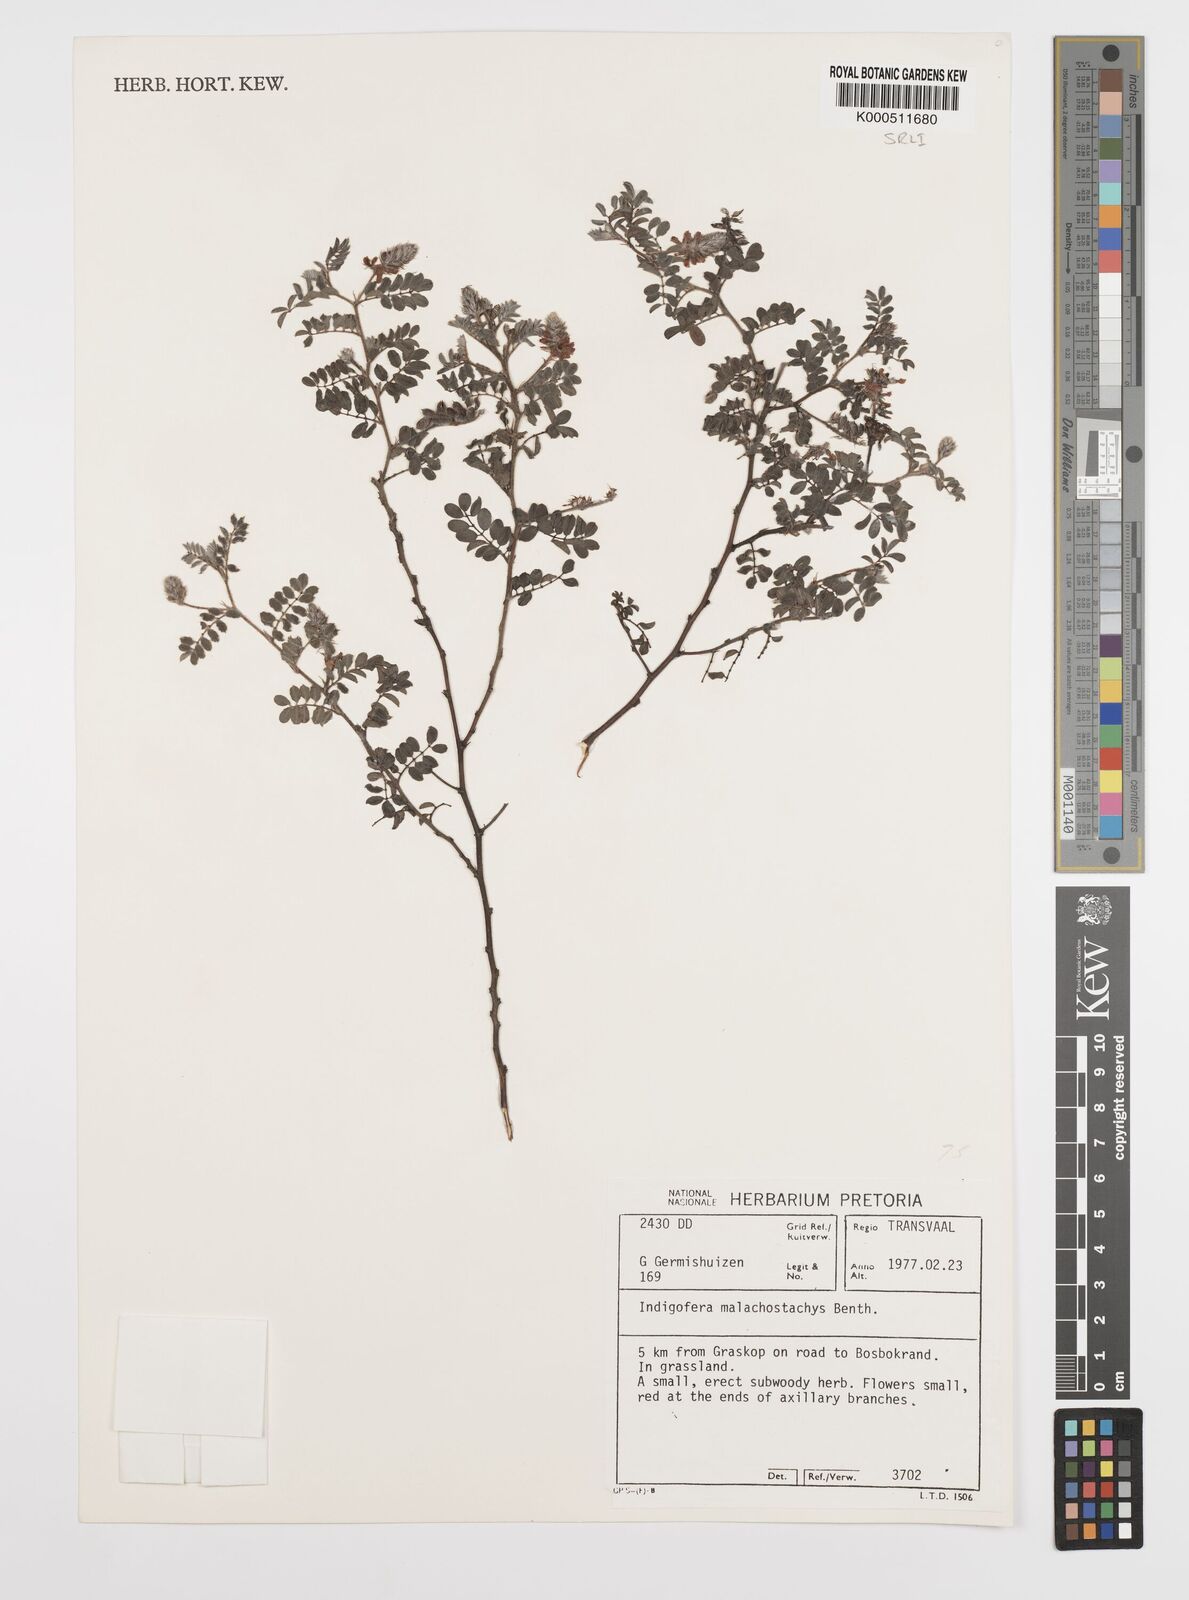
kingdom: Plantae
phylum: Tracheophyta
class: Magnoliopsida
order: Fabales
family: Fabaceae
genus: Indigofera
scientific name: Indigofera
